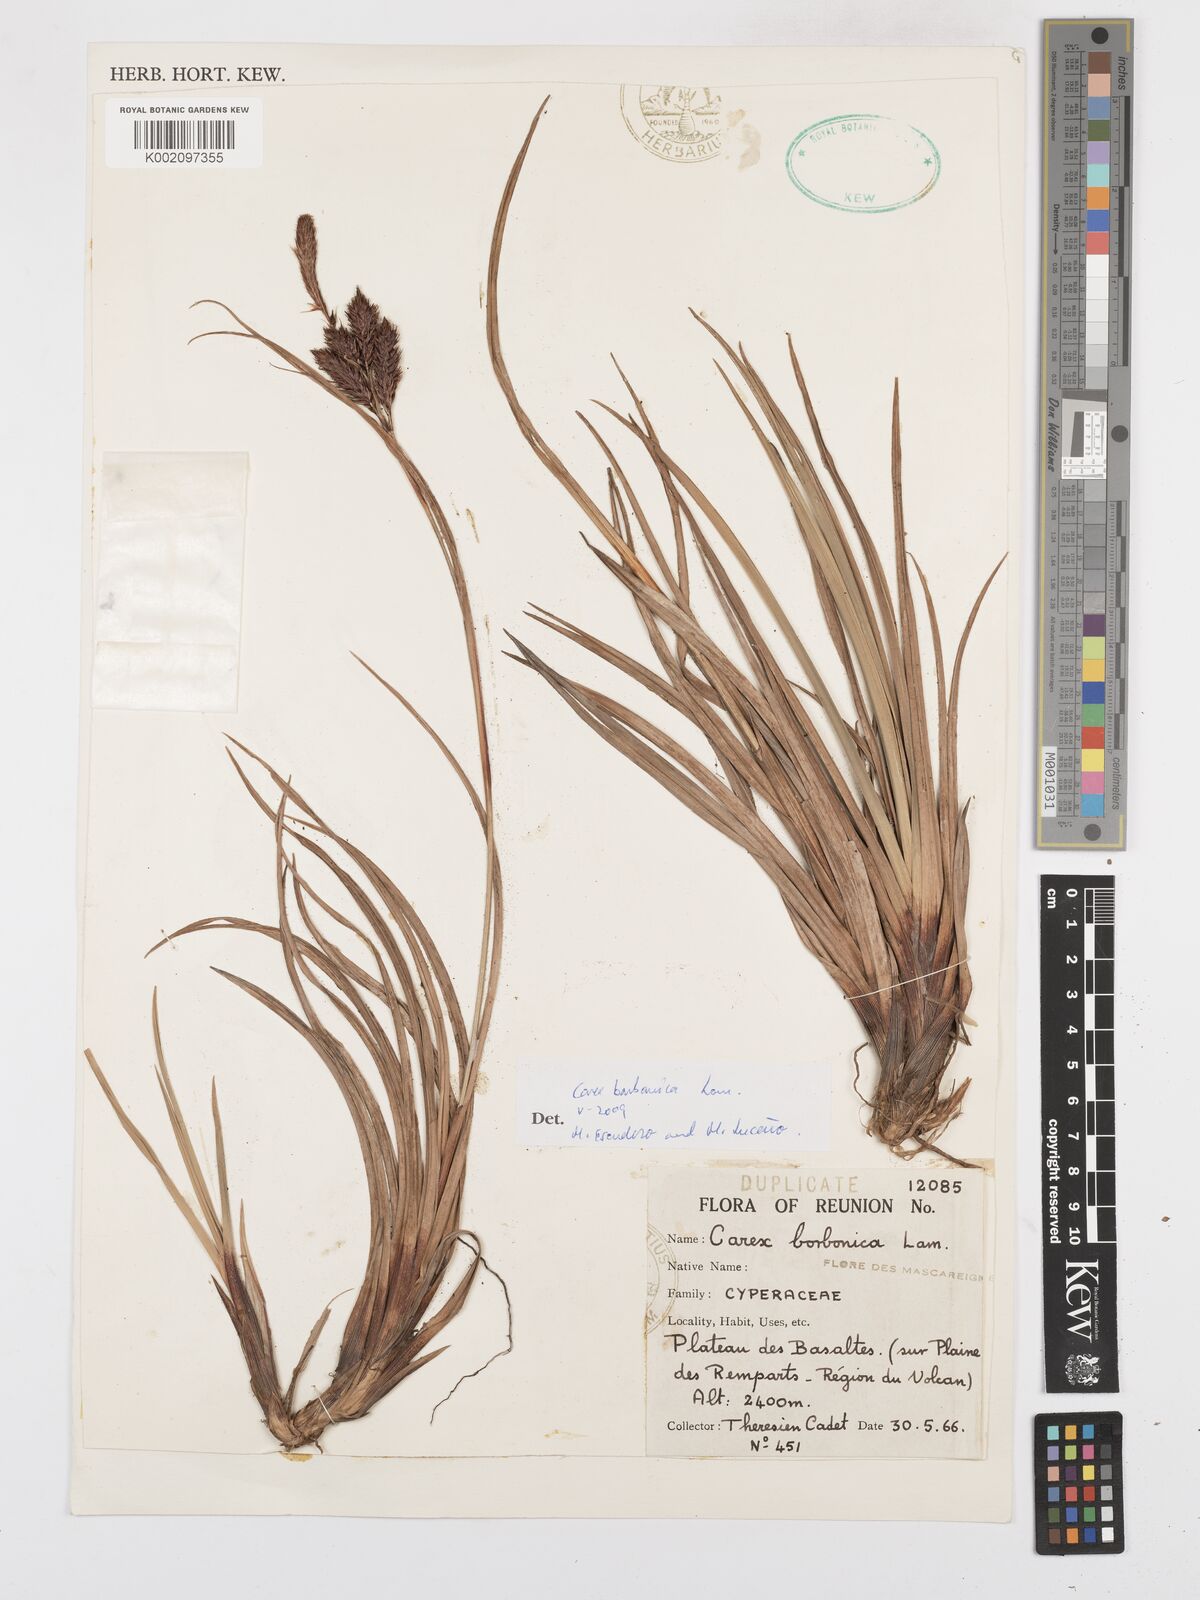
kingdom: Plantae
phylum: Tracheophyta
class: Liliopsida
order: Poales
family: Cyperaceae
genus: Carex
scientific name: Carex borbonica
